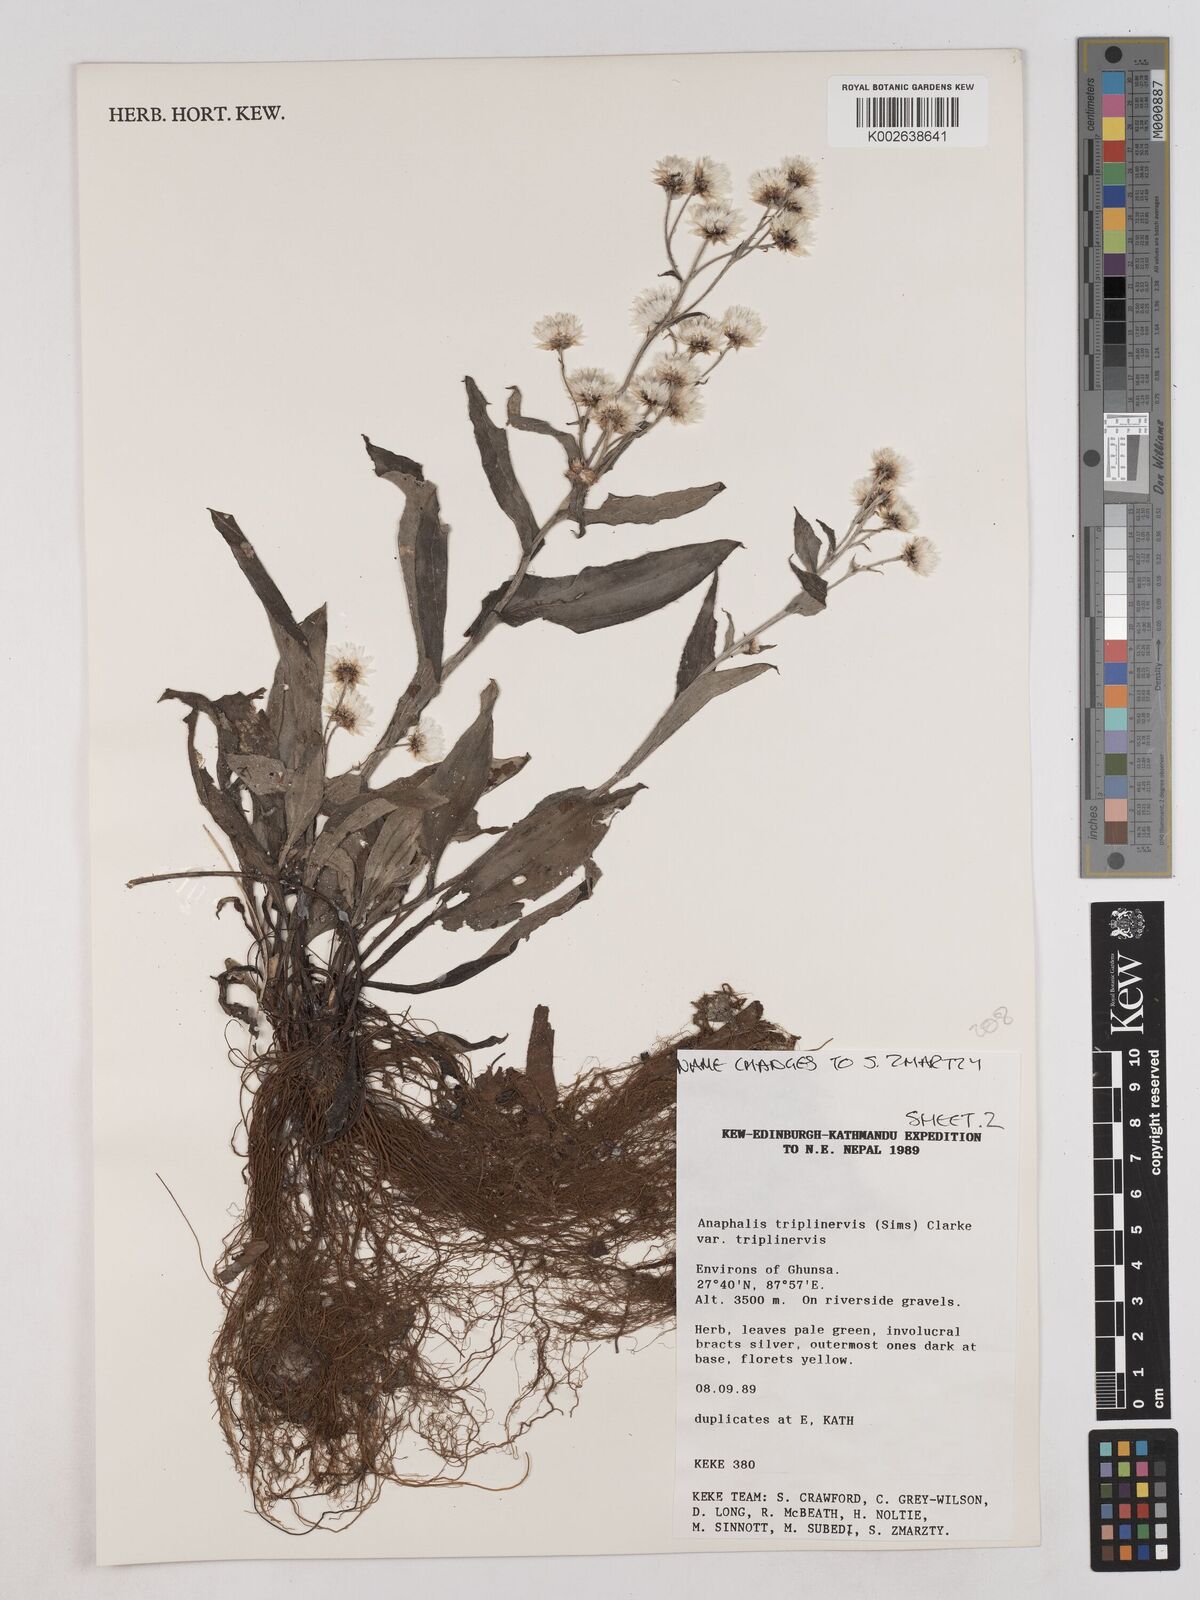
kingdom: Plantae
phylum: Tracheophyta
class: Magnoliopsida
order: Asterales
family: Asteraceae
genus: Anaphalis
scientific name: Anaphalis triplinervis
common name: Pearly everlasting
